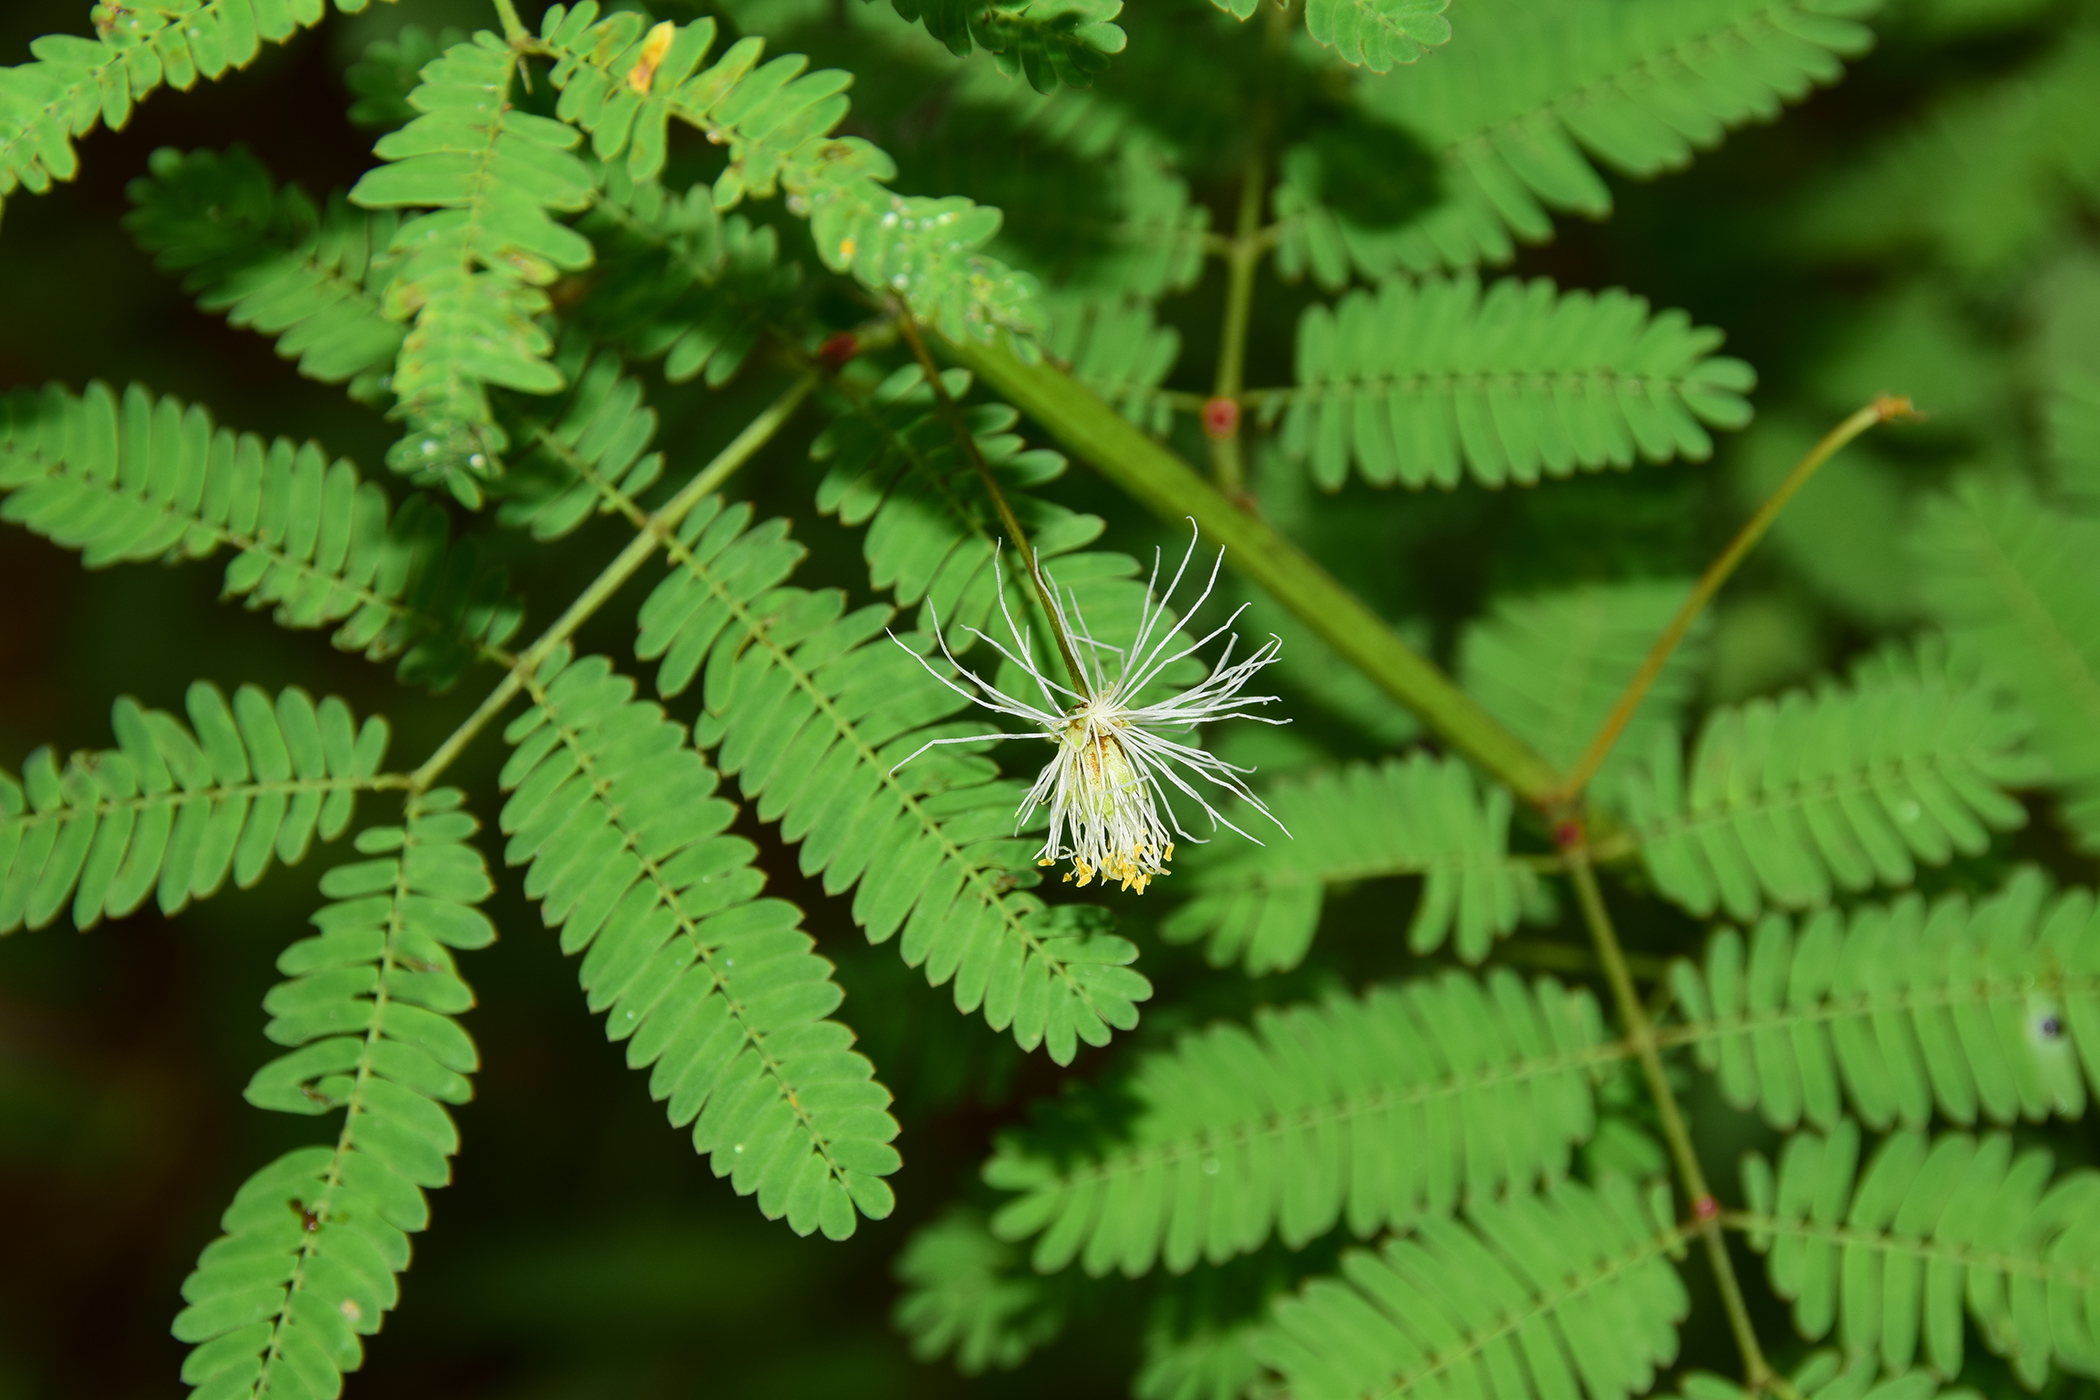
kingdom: Plantae
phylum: Tracheophyta
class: Magnoliopsida
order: Fabales
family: Fabaceae
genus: Desmanthus
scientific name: Desmanthus pernambucanus
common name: Pigeon bundleflower
